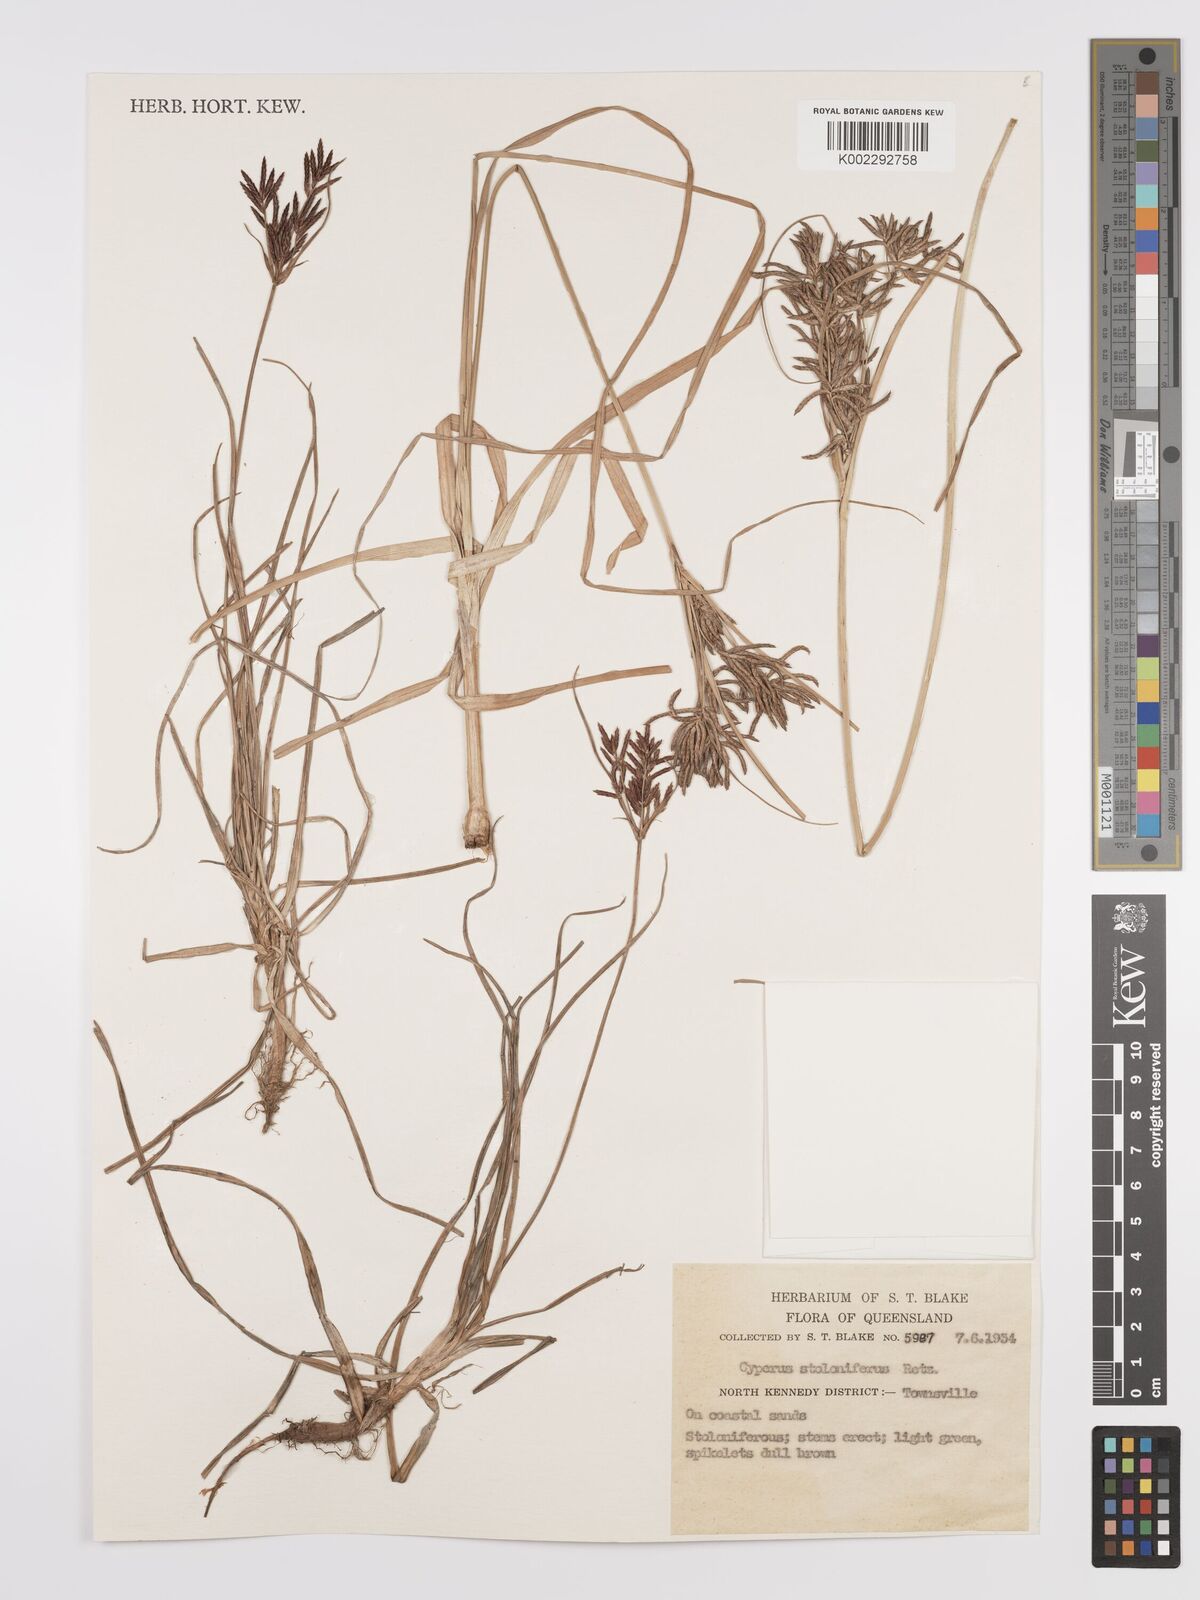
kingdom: Plantae
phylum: Tracheophyta
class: Liliopsida
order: Poales
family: Cyperaceae
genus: Cyperus
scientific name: Cyperus bulbosus
